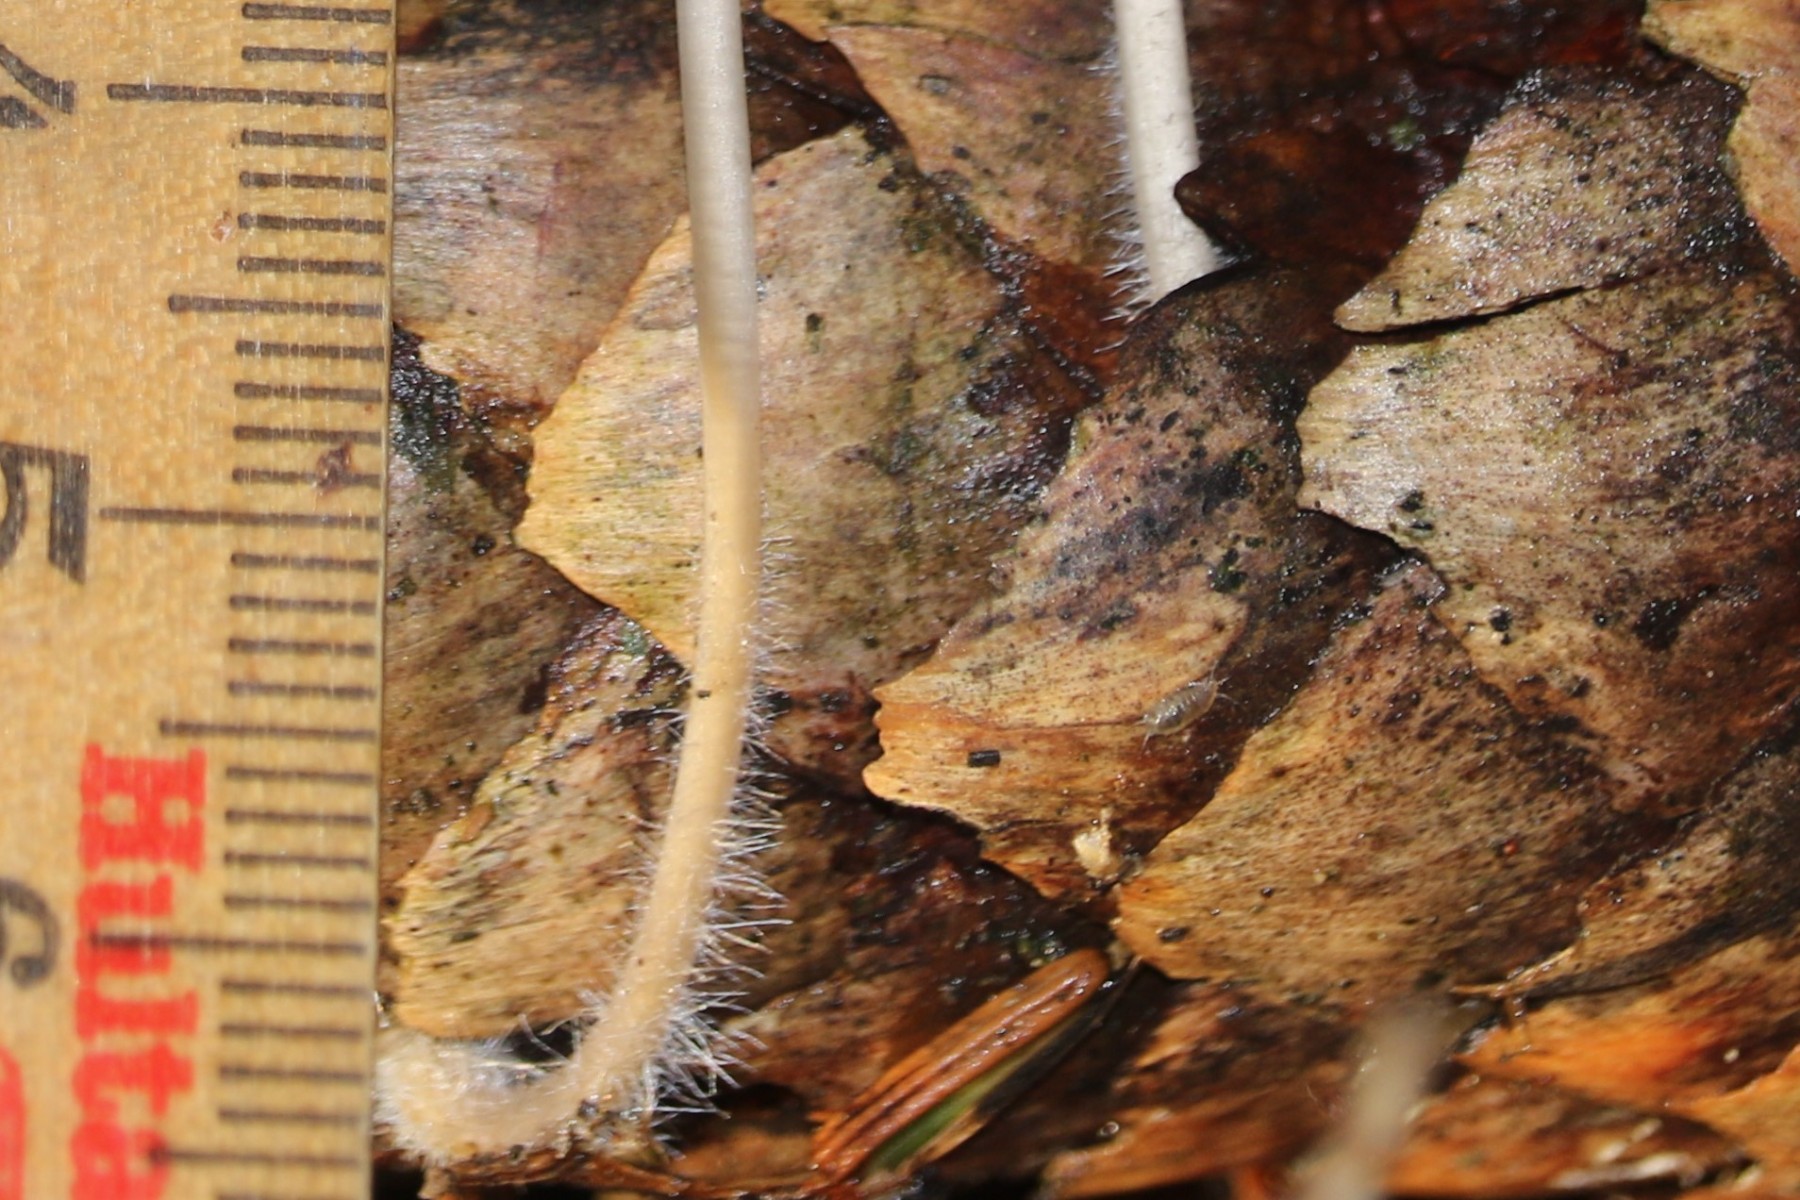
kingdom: Fungi
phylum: Basidiomycota
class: Agaricomycetes
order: Agaricales
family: Mycenaceae
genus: Mycena
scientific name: Mycena
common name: huesvamp
